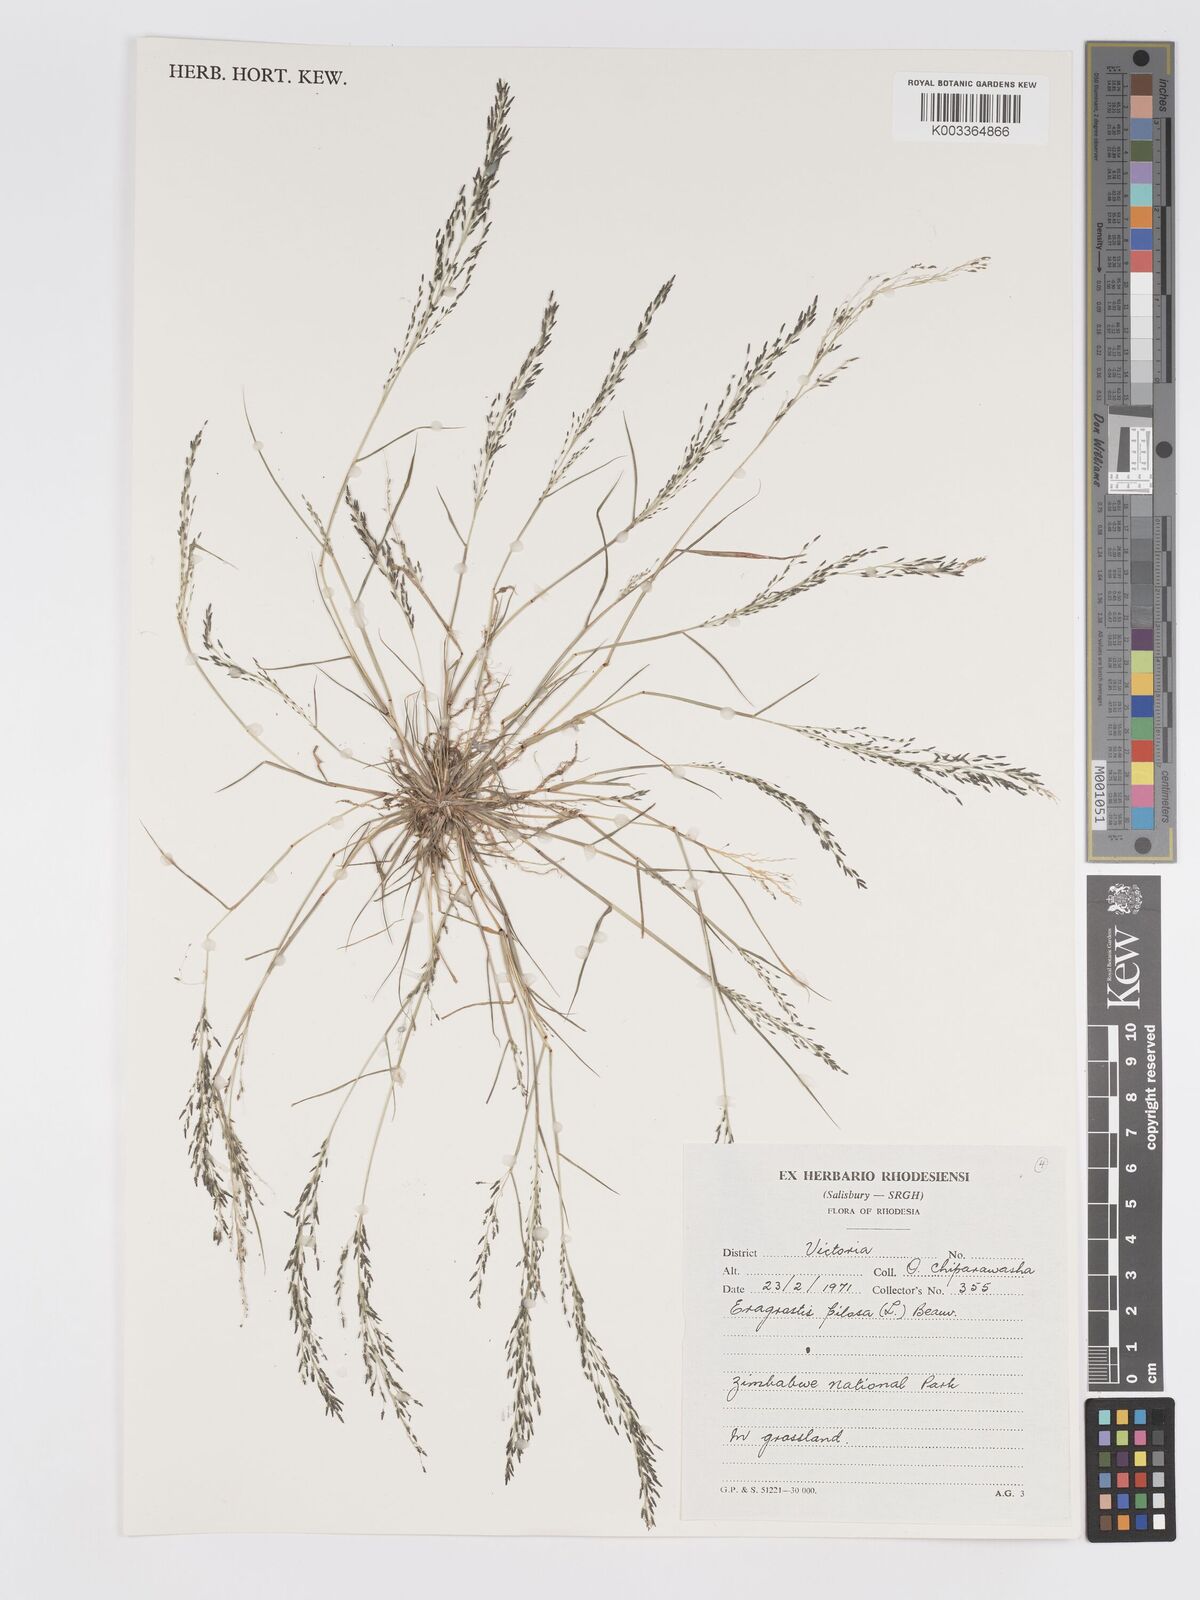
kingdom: Plantae
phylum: Tracheophyta
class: Liliopsida
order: Poales
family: Poaceae
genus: Eragrostis
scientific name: Eragrostis aethiopica
